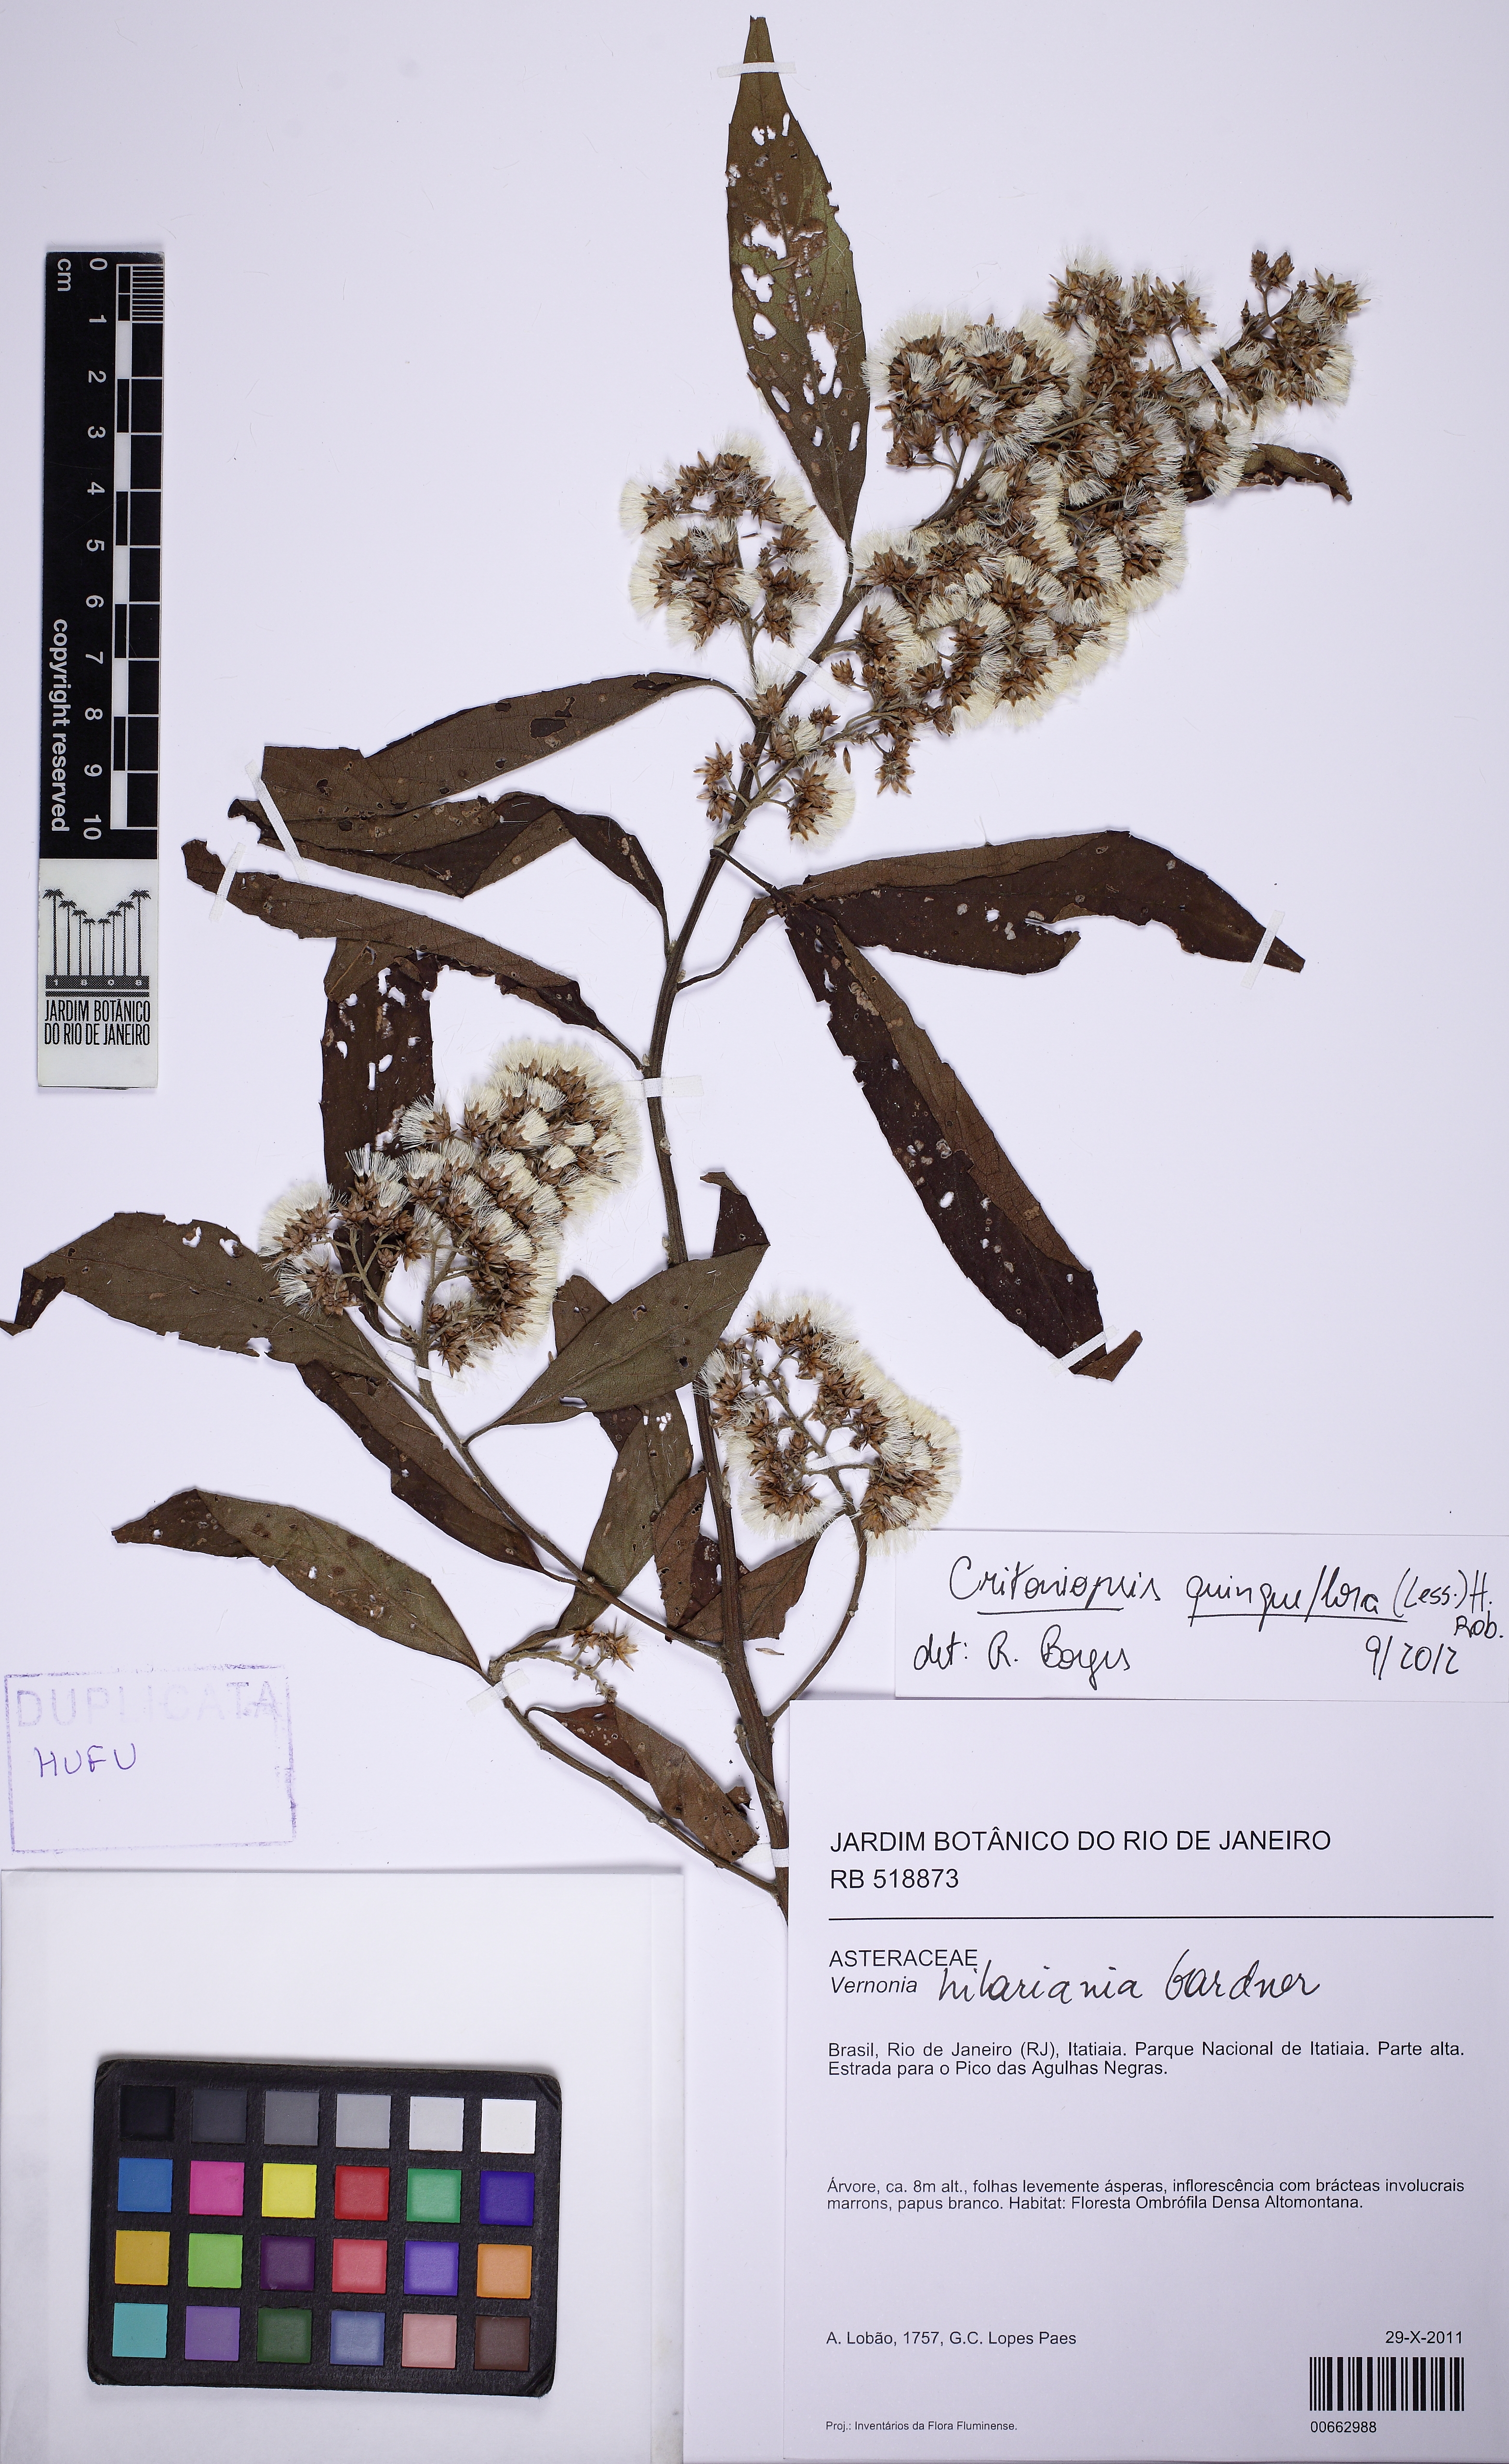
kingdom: Plantae
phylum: Tracheophyta
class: Magnoliopsida
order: Asterales
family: Asteraceae
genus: Critoniopsis
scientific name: Critoniopsis quinqueflora
